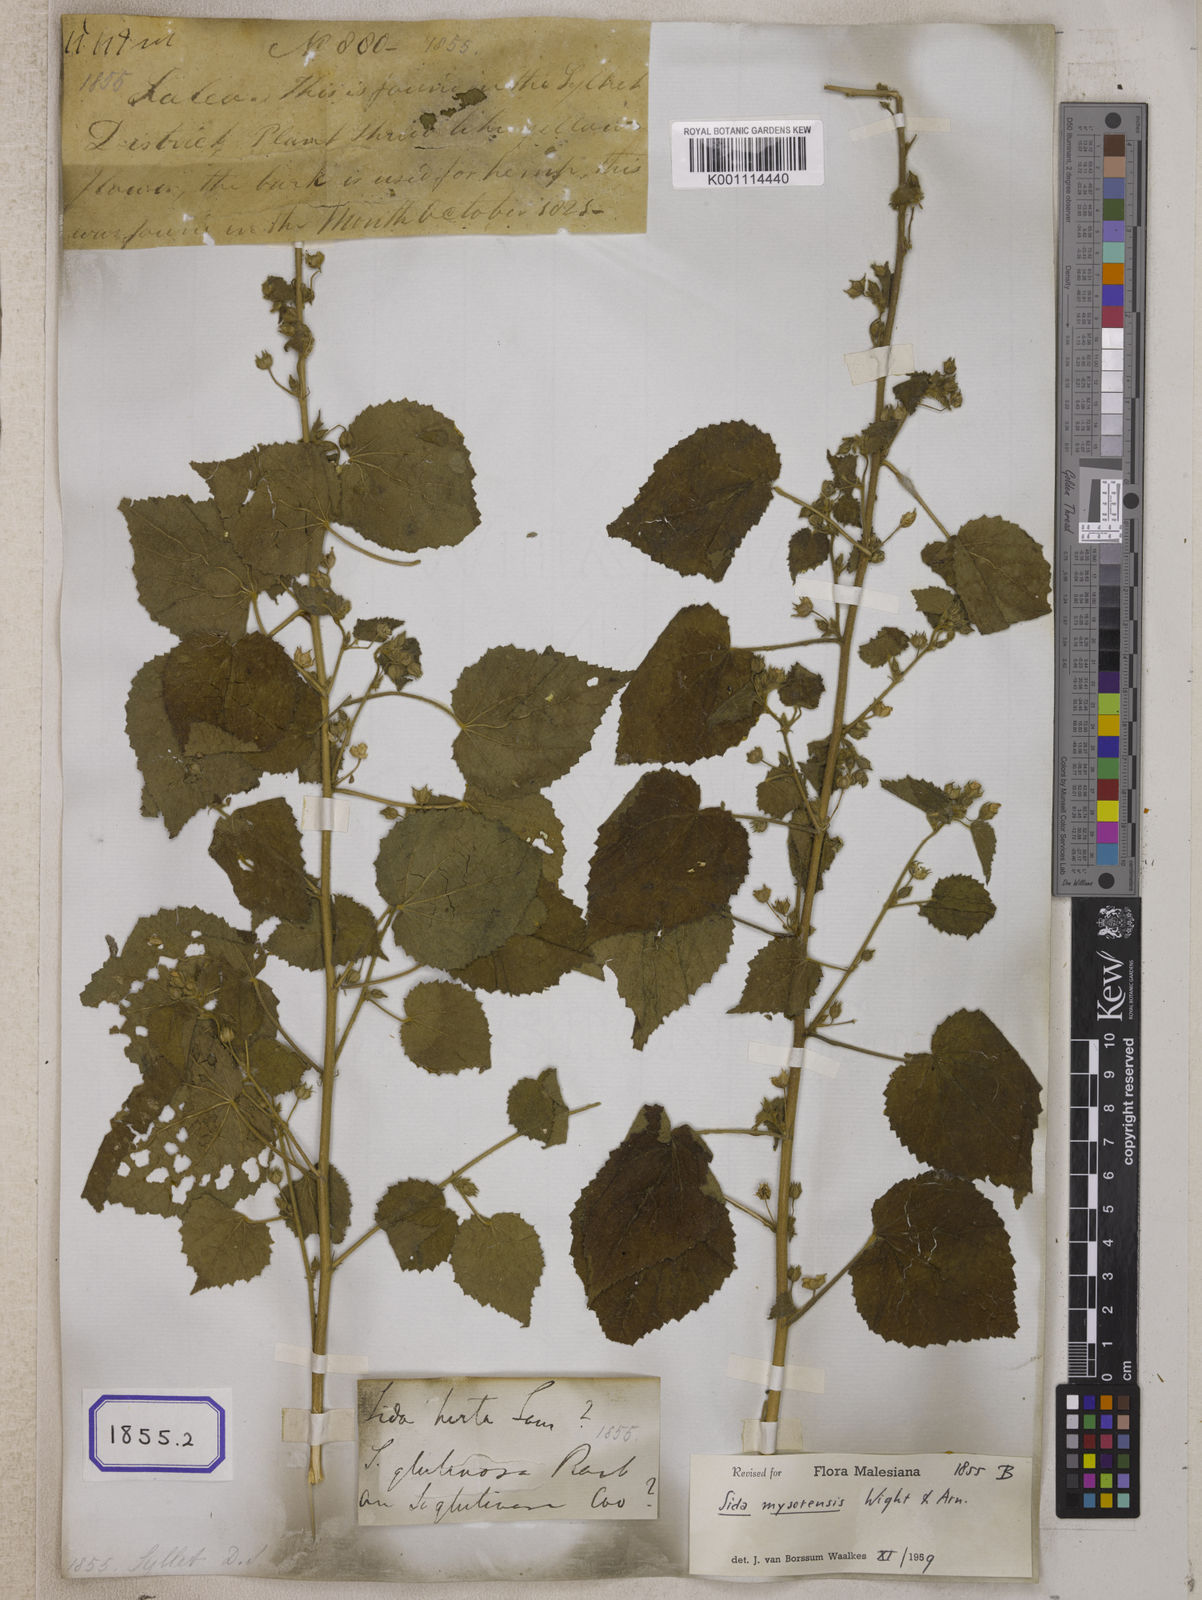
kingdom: Plantae
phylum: Tracheophyta
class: Magnoliopsida
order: Malvales
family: Malvaceae
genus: Abutilon
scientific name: Abutilon hirtum
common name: Florida keys indian mallow
